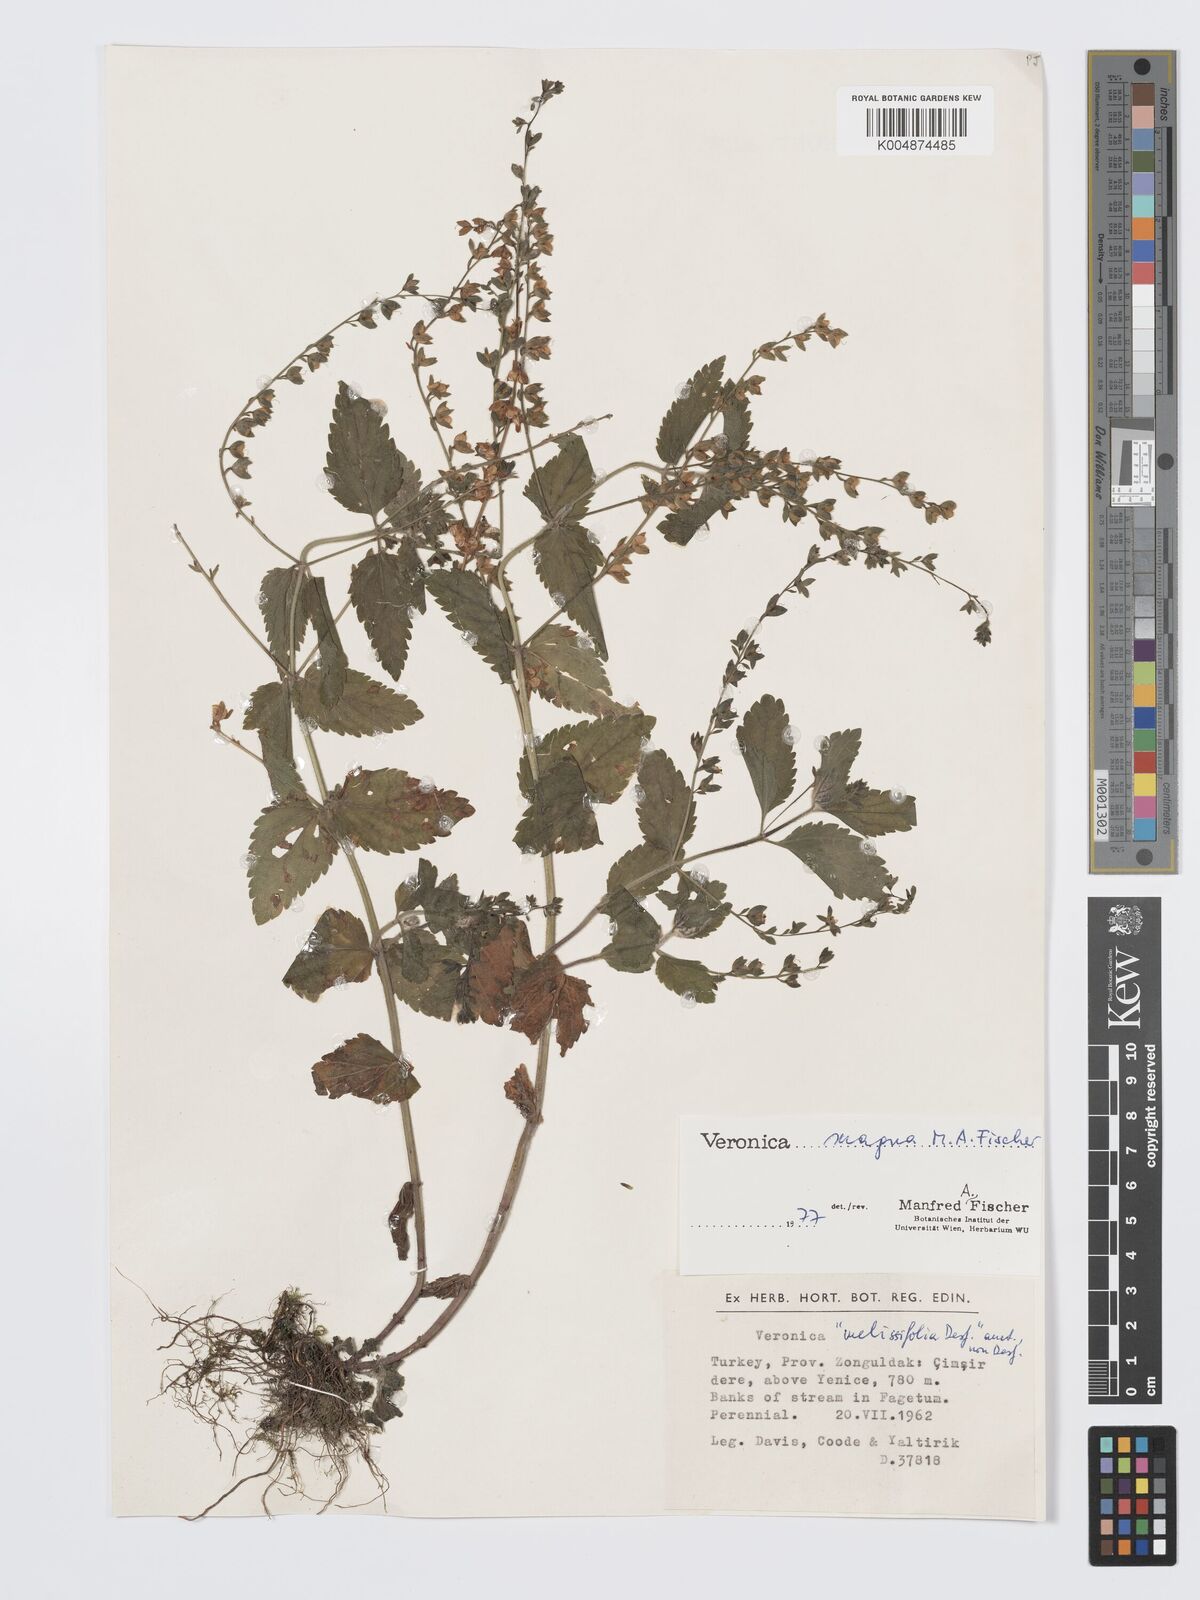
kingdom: Plantae
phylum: Tracheophyta
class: Magnoliopsida
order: Lamiales
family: Plantaginaceae
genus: Veronica
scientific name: Veronica magna
